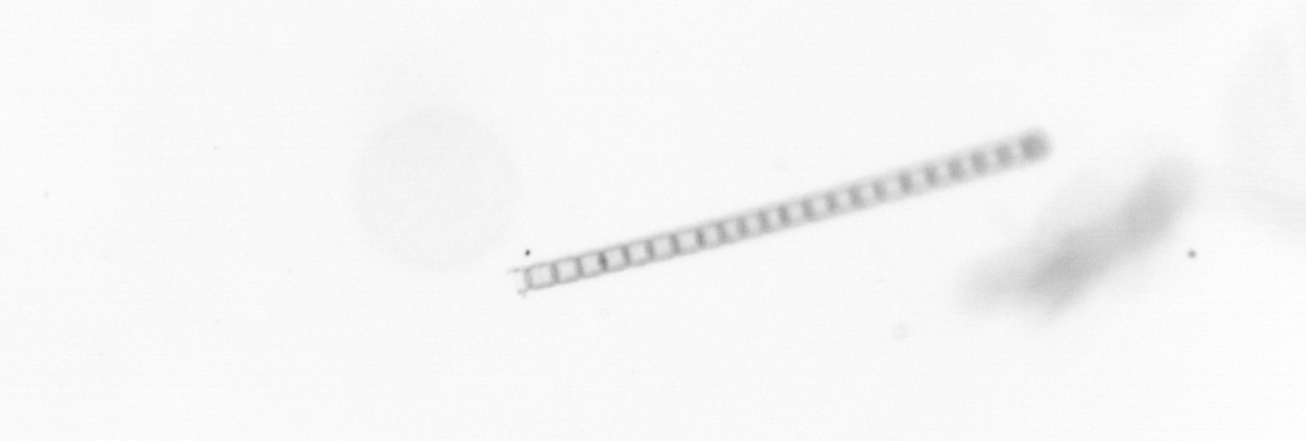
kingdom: Chromista
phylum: Ochrophyta
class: Bacillariophyceae
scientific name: Bacillariophyceae
